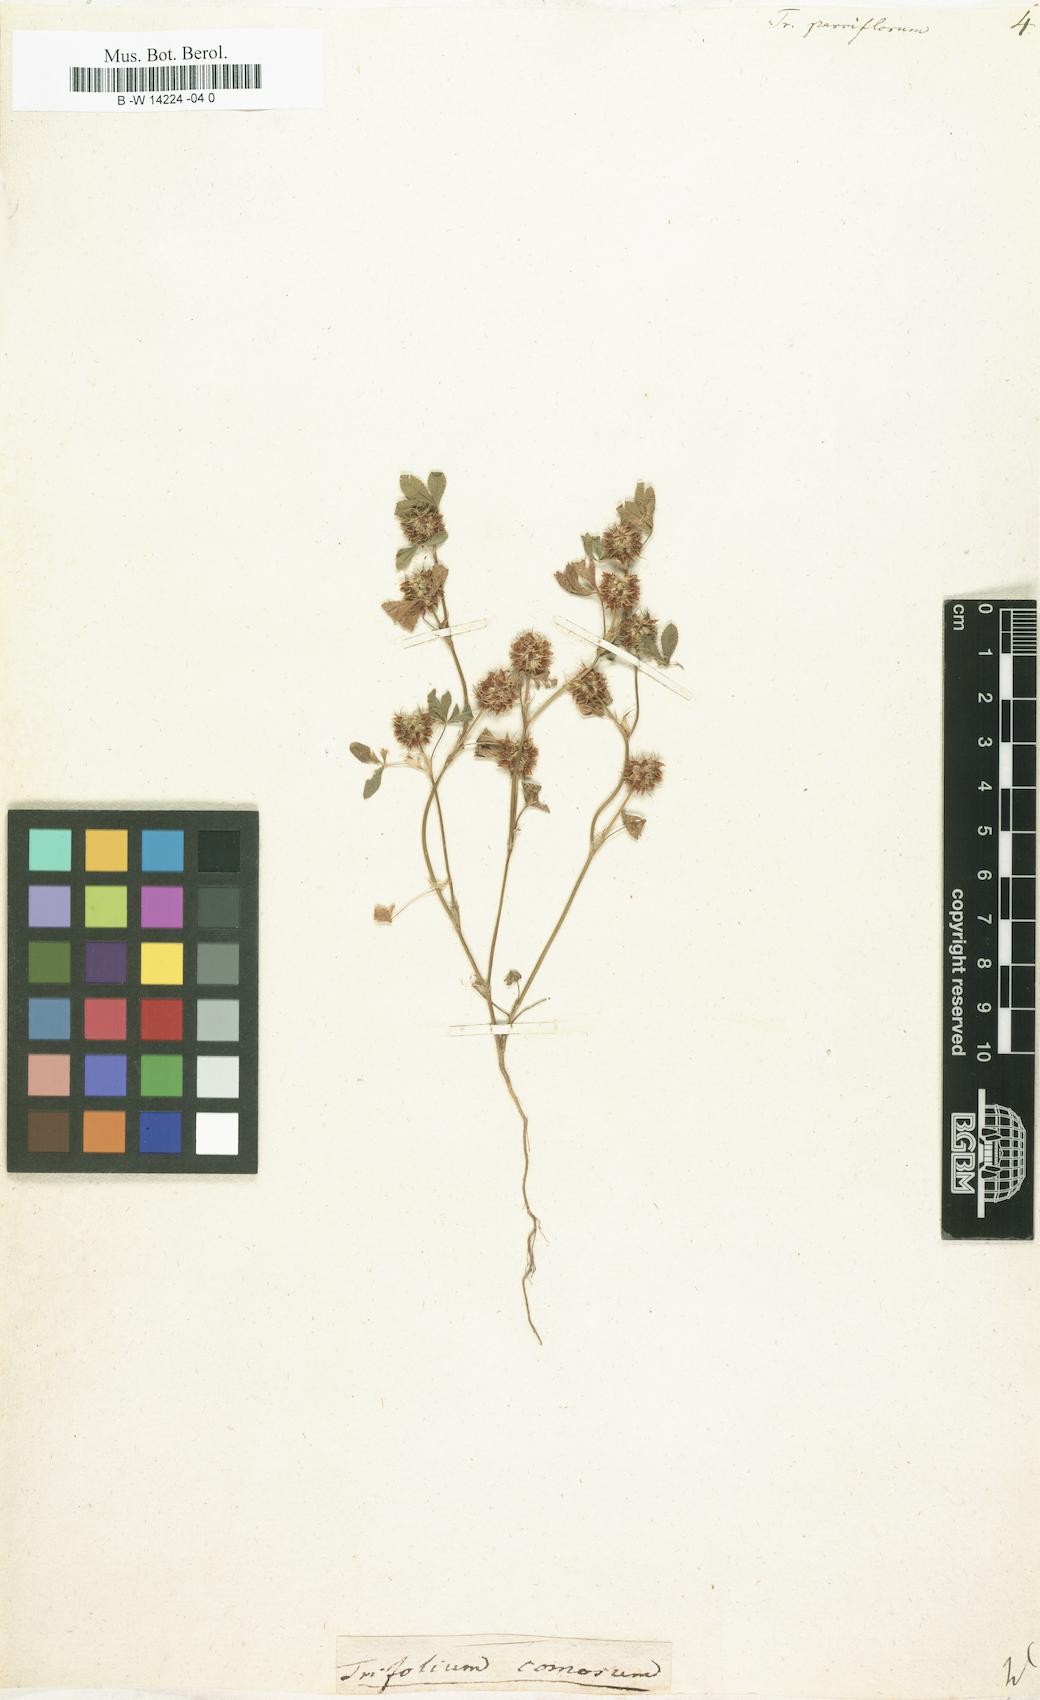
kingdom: Plantae
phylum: Tracheophyta
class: Magnoliopsida
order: Fabales
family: Fabaceae
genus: Trifolium
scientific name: Trifolium cernuum
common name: Nodding clover
